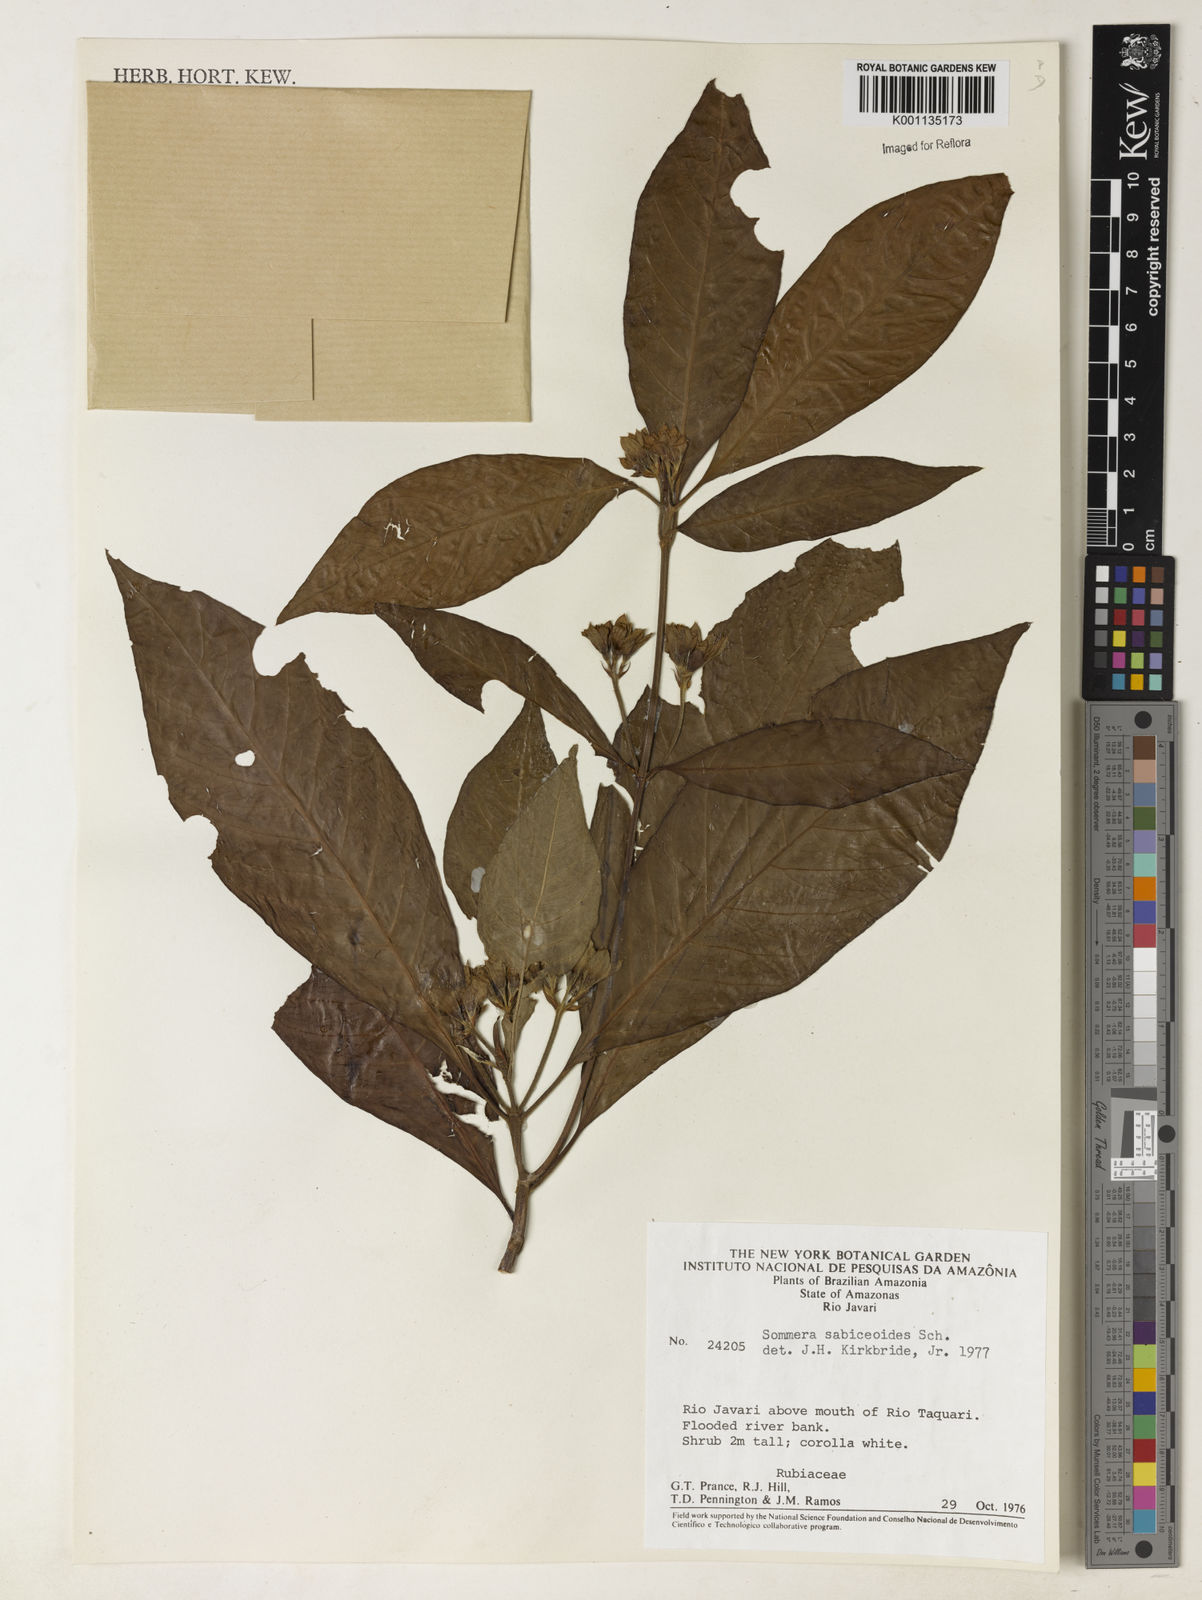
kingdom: Plantae
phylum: Tracheophyta
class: Magnoliopsida
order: Gentianales
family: Rubiaceae
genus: Sommera
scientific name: Sommera sabiceoides
